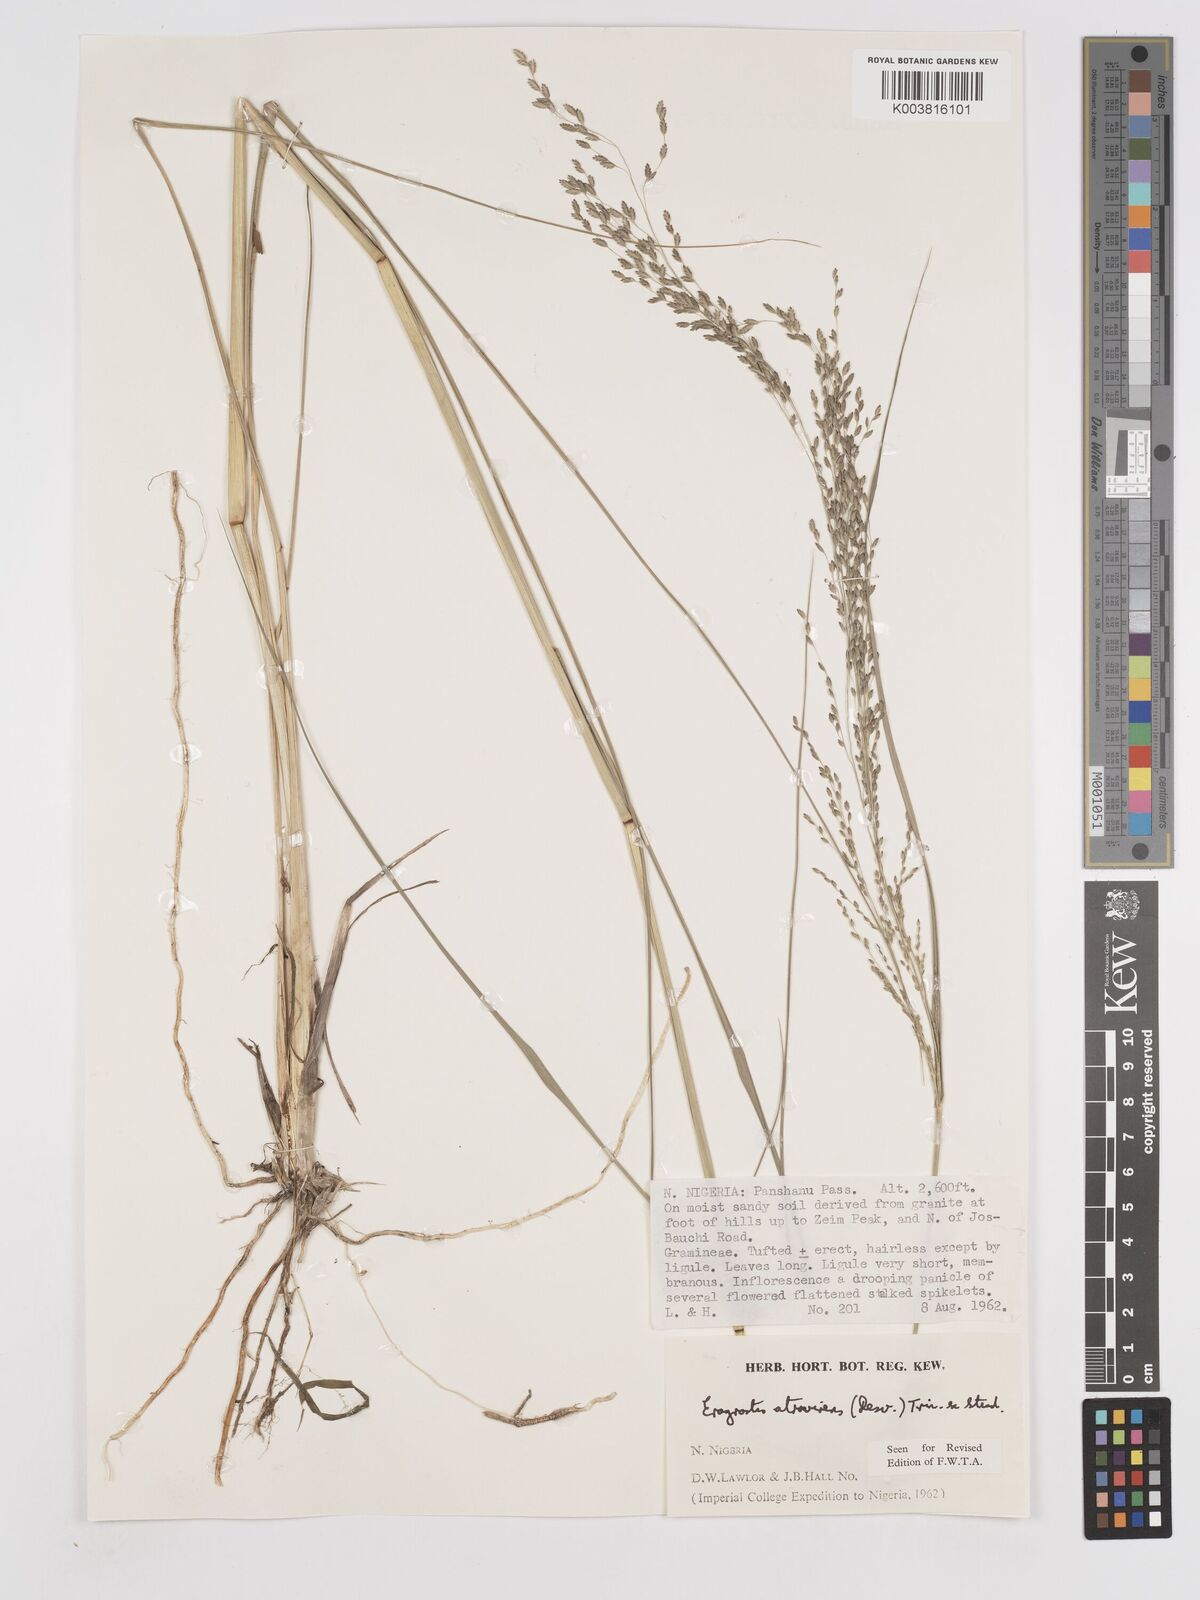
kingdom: Plantae
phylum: Tracheophyta
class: Liliopsida
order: Poales
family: Poaceae
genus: Eragrostis
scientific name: Eragrostis atrovirens
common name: Thalia lovegrass
